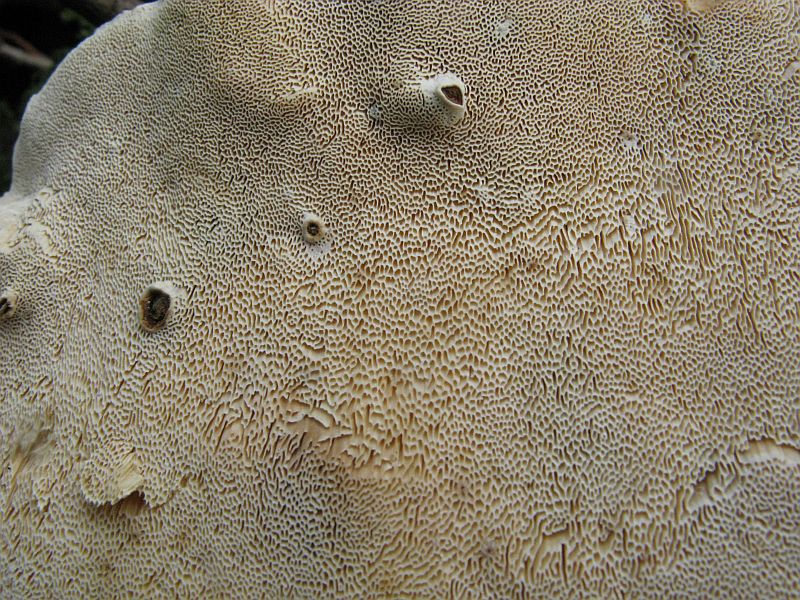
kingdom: Fungi
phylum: Basidiomycota
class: Agaricomycetes
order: Russulales
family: Bondarzewiaceae
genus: Heterobasidion
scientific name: Heterobasidion annosum
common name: almindelig rodfordærver
